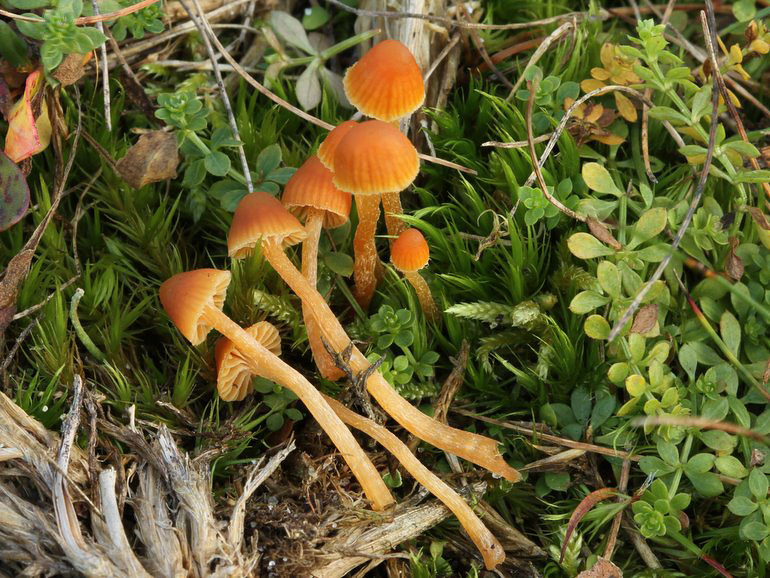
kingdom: Fungi
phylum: Basidiomycota
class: Agaricomycetes
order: Agaricales
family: Hymenogastraceae
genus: Galerina
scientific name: Galerina calyptrata
